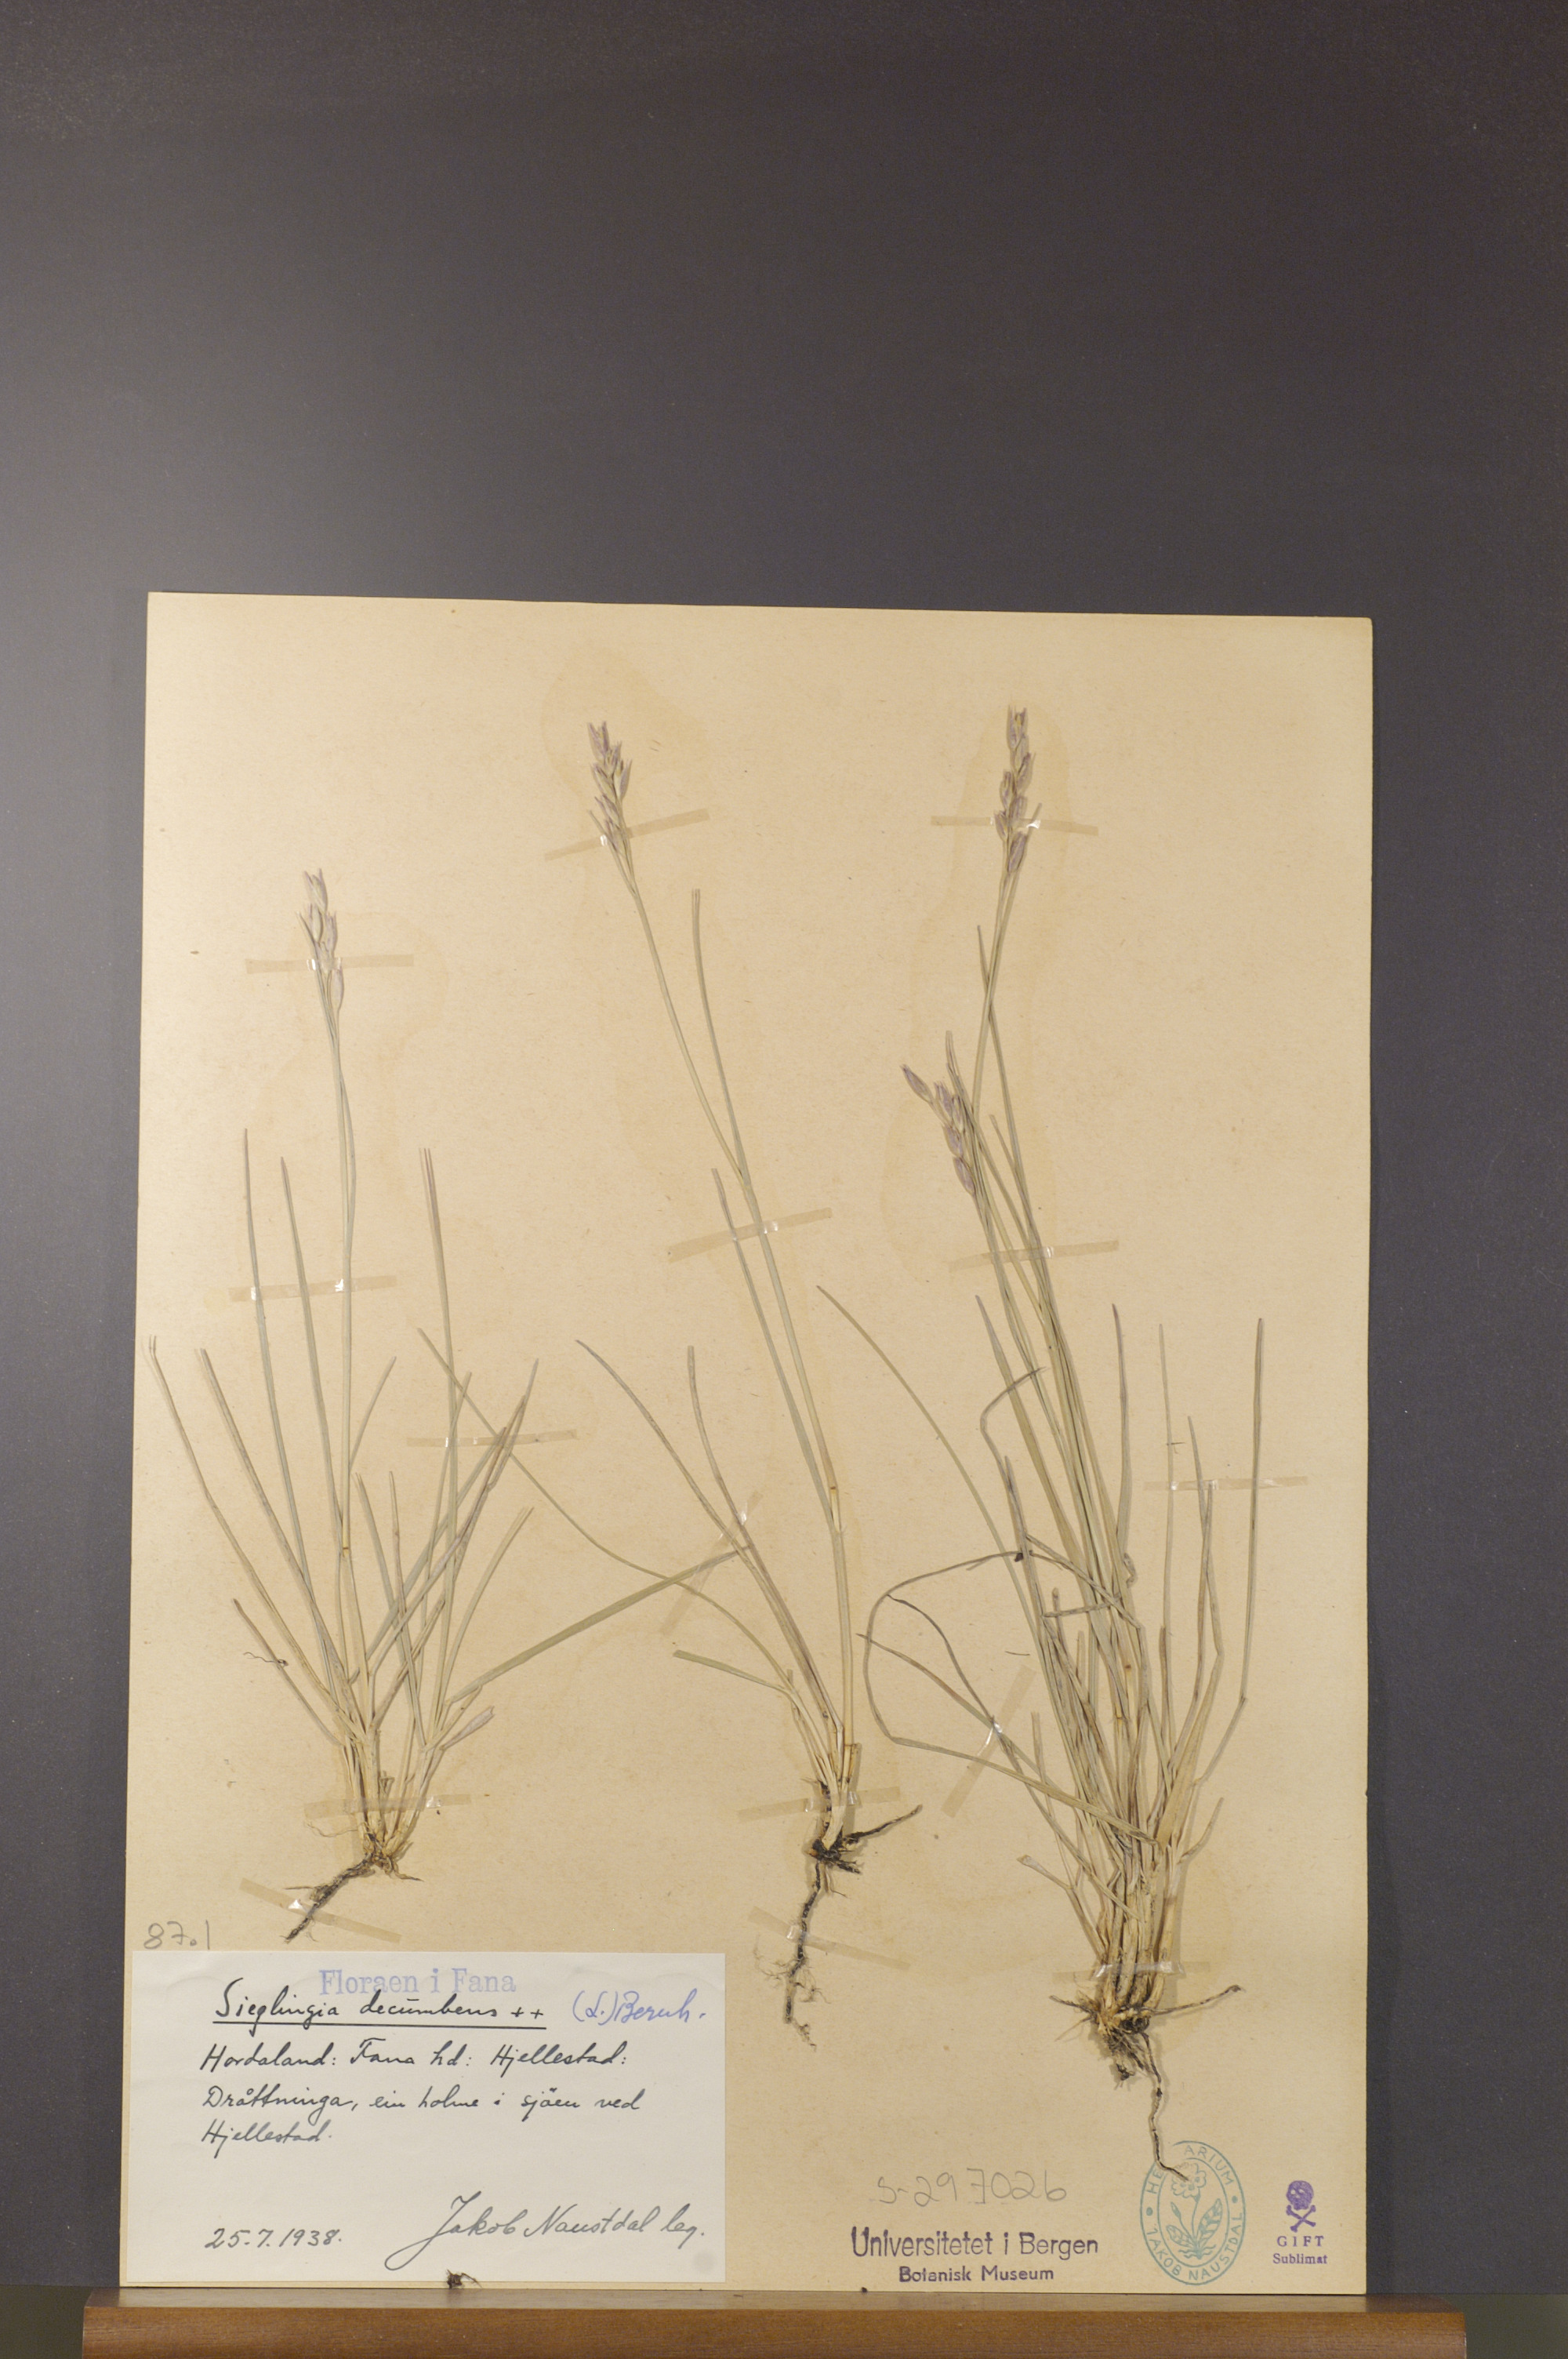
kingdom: Plantae
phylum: Tracheophyta
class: Liliopsida
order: Poales
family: Poaceae
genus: Danthonia
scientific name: Danthonia decumbens
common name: Common heathgrass
